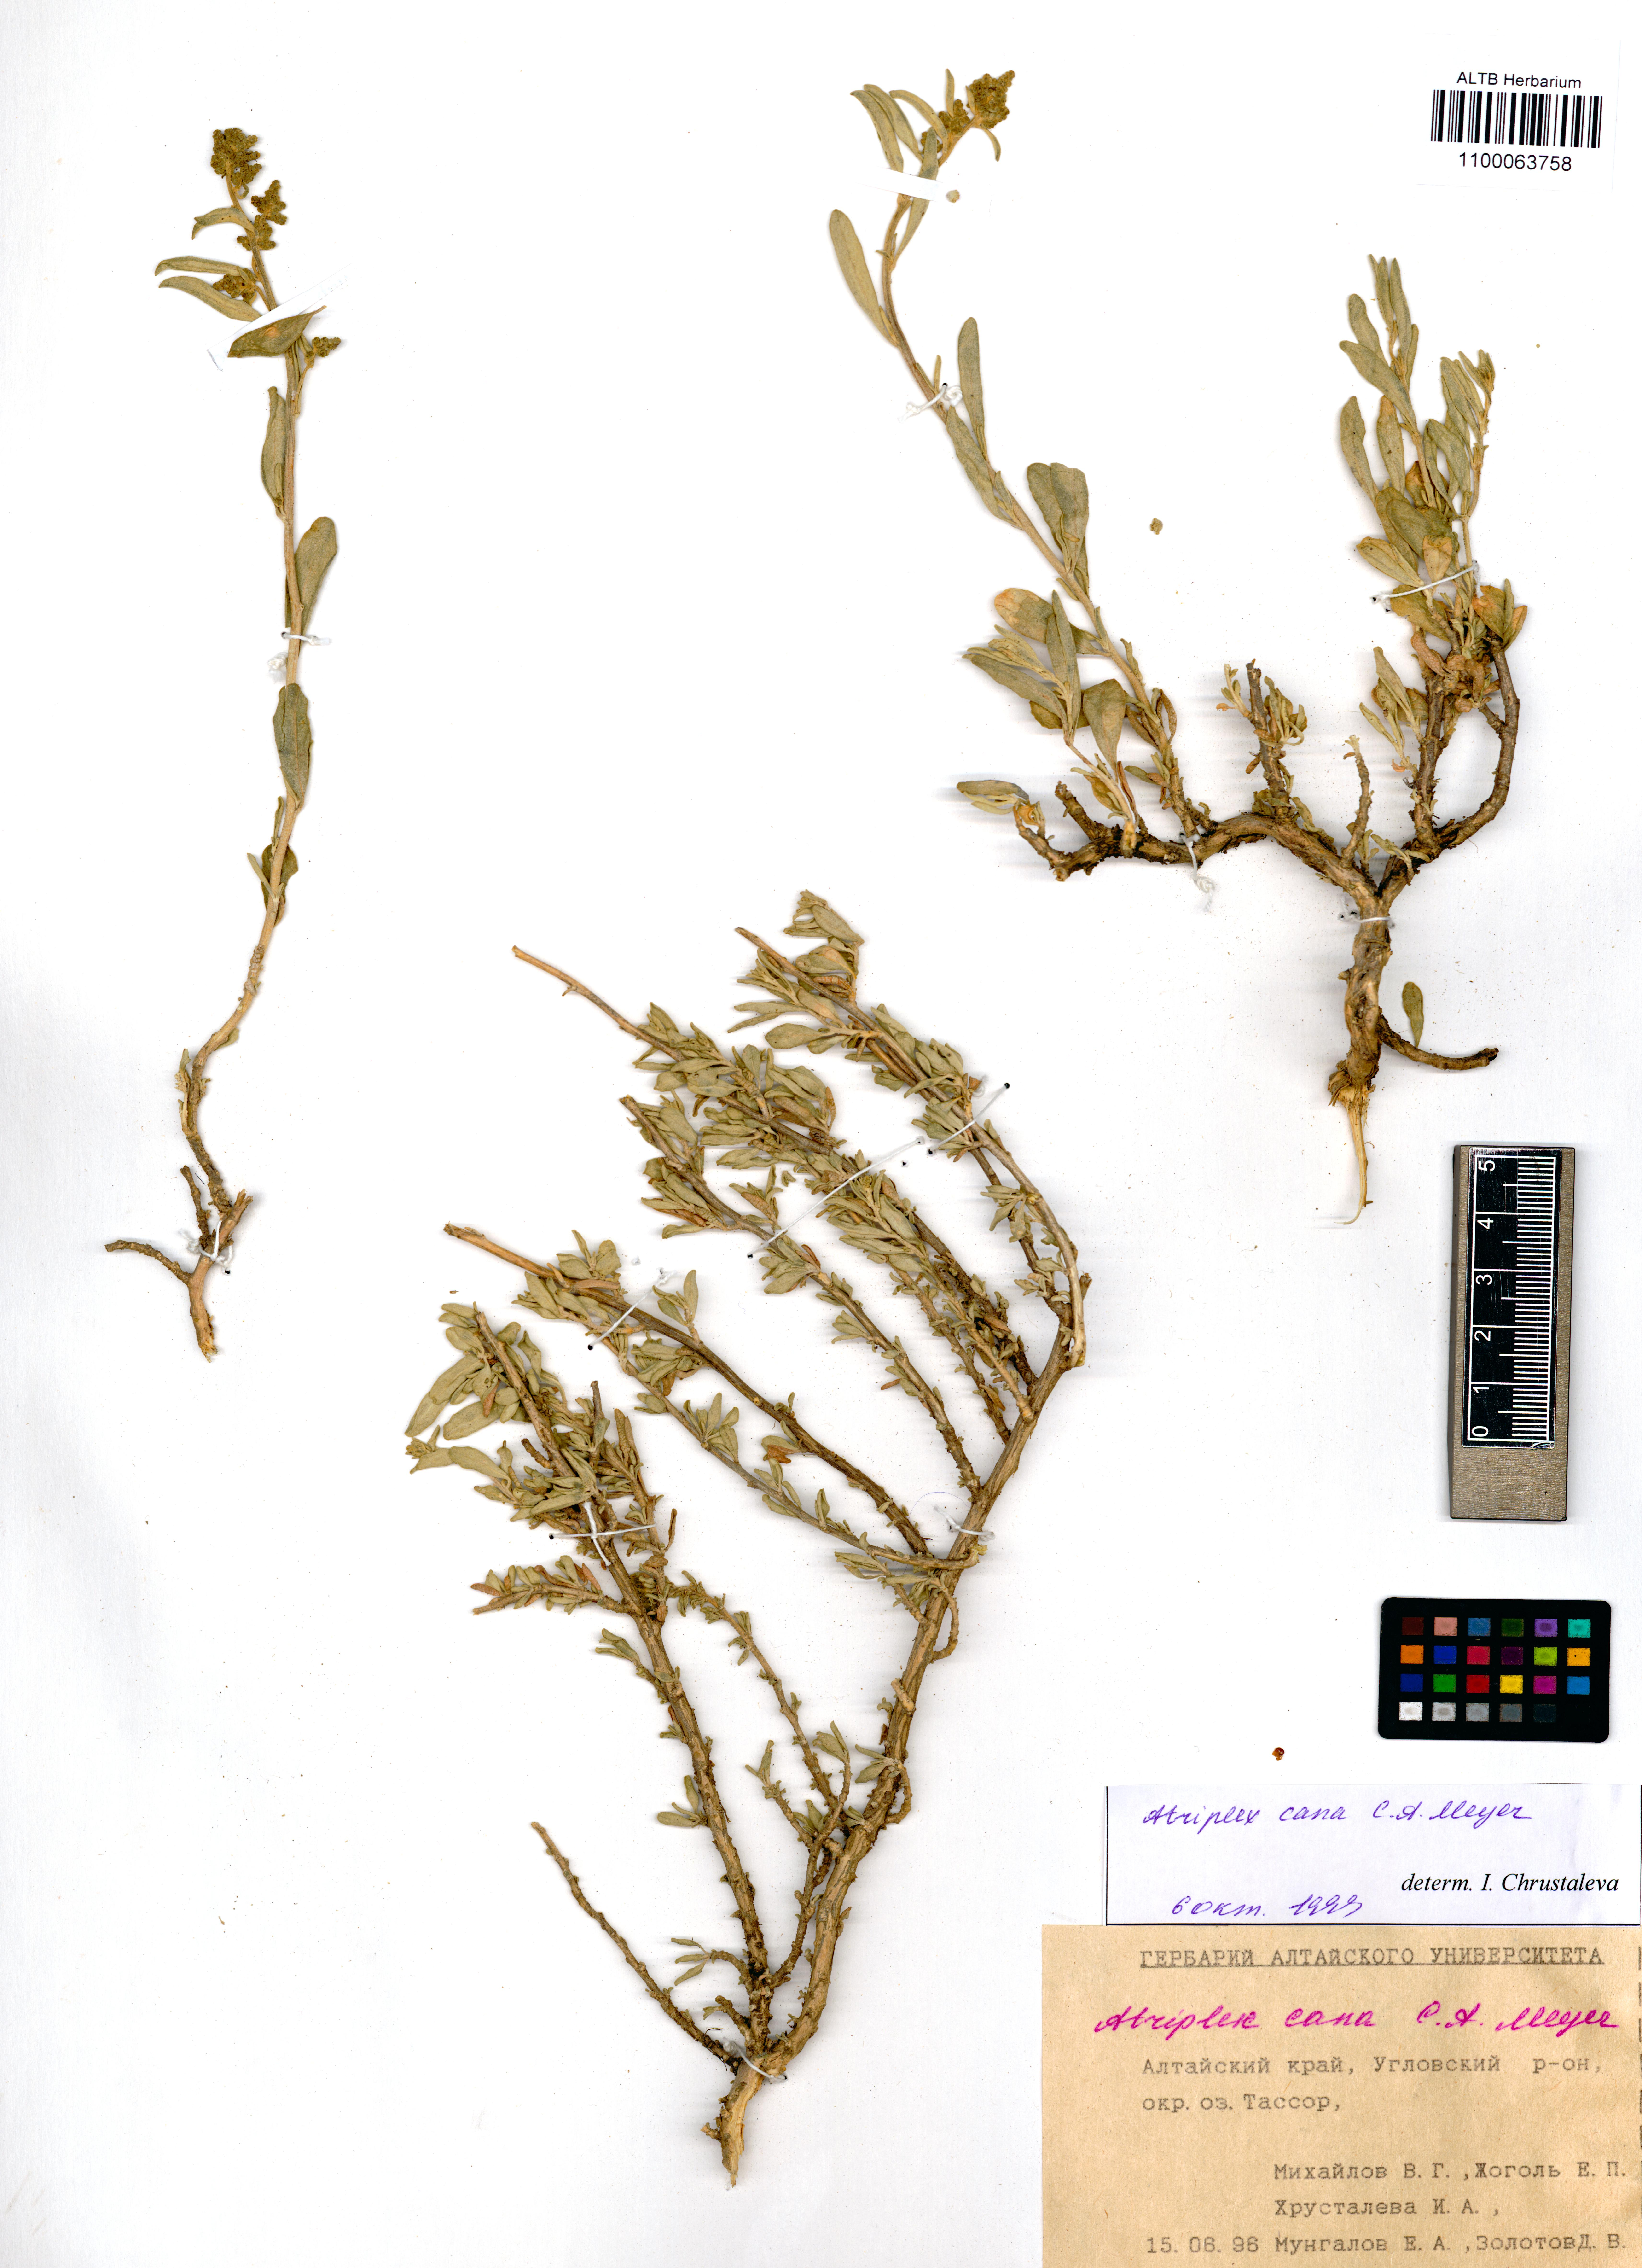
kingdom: Plantae
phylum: Tracheophyta
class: Magnoliopsida
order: Caryophyllales
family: Amaranthaceae
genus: Atriplex
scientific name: Atriplex cana
